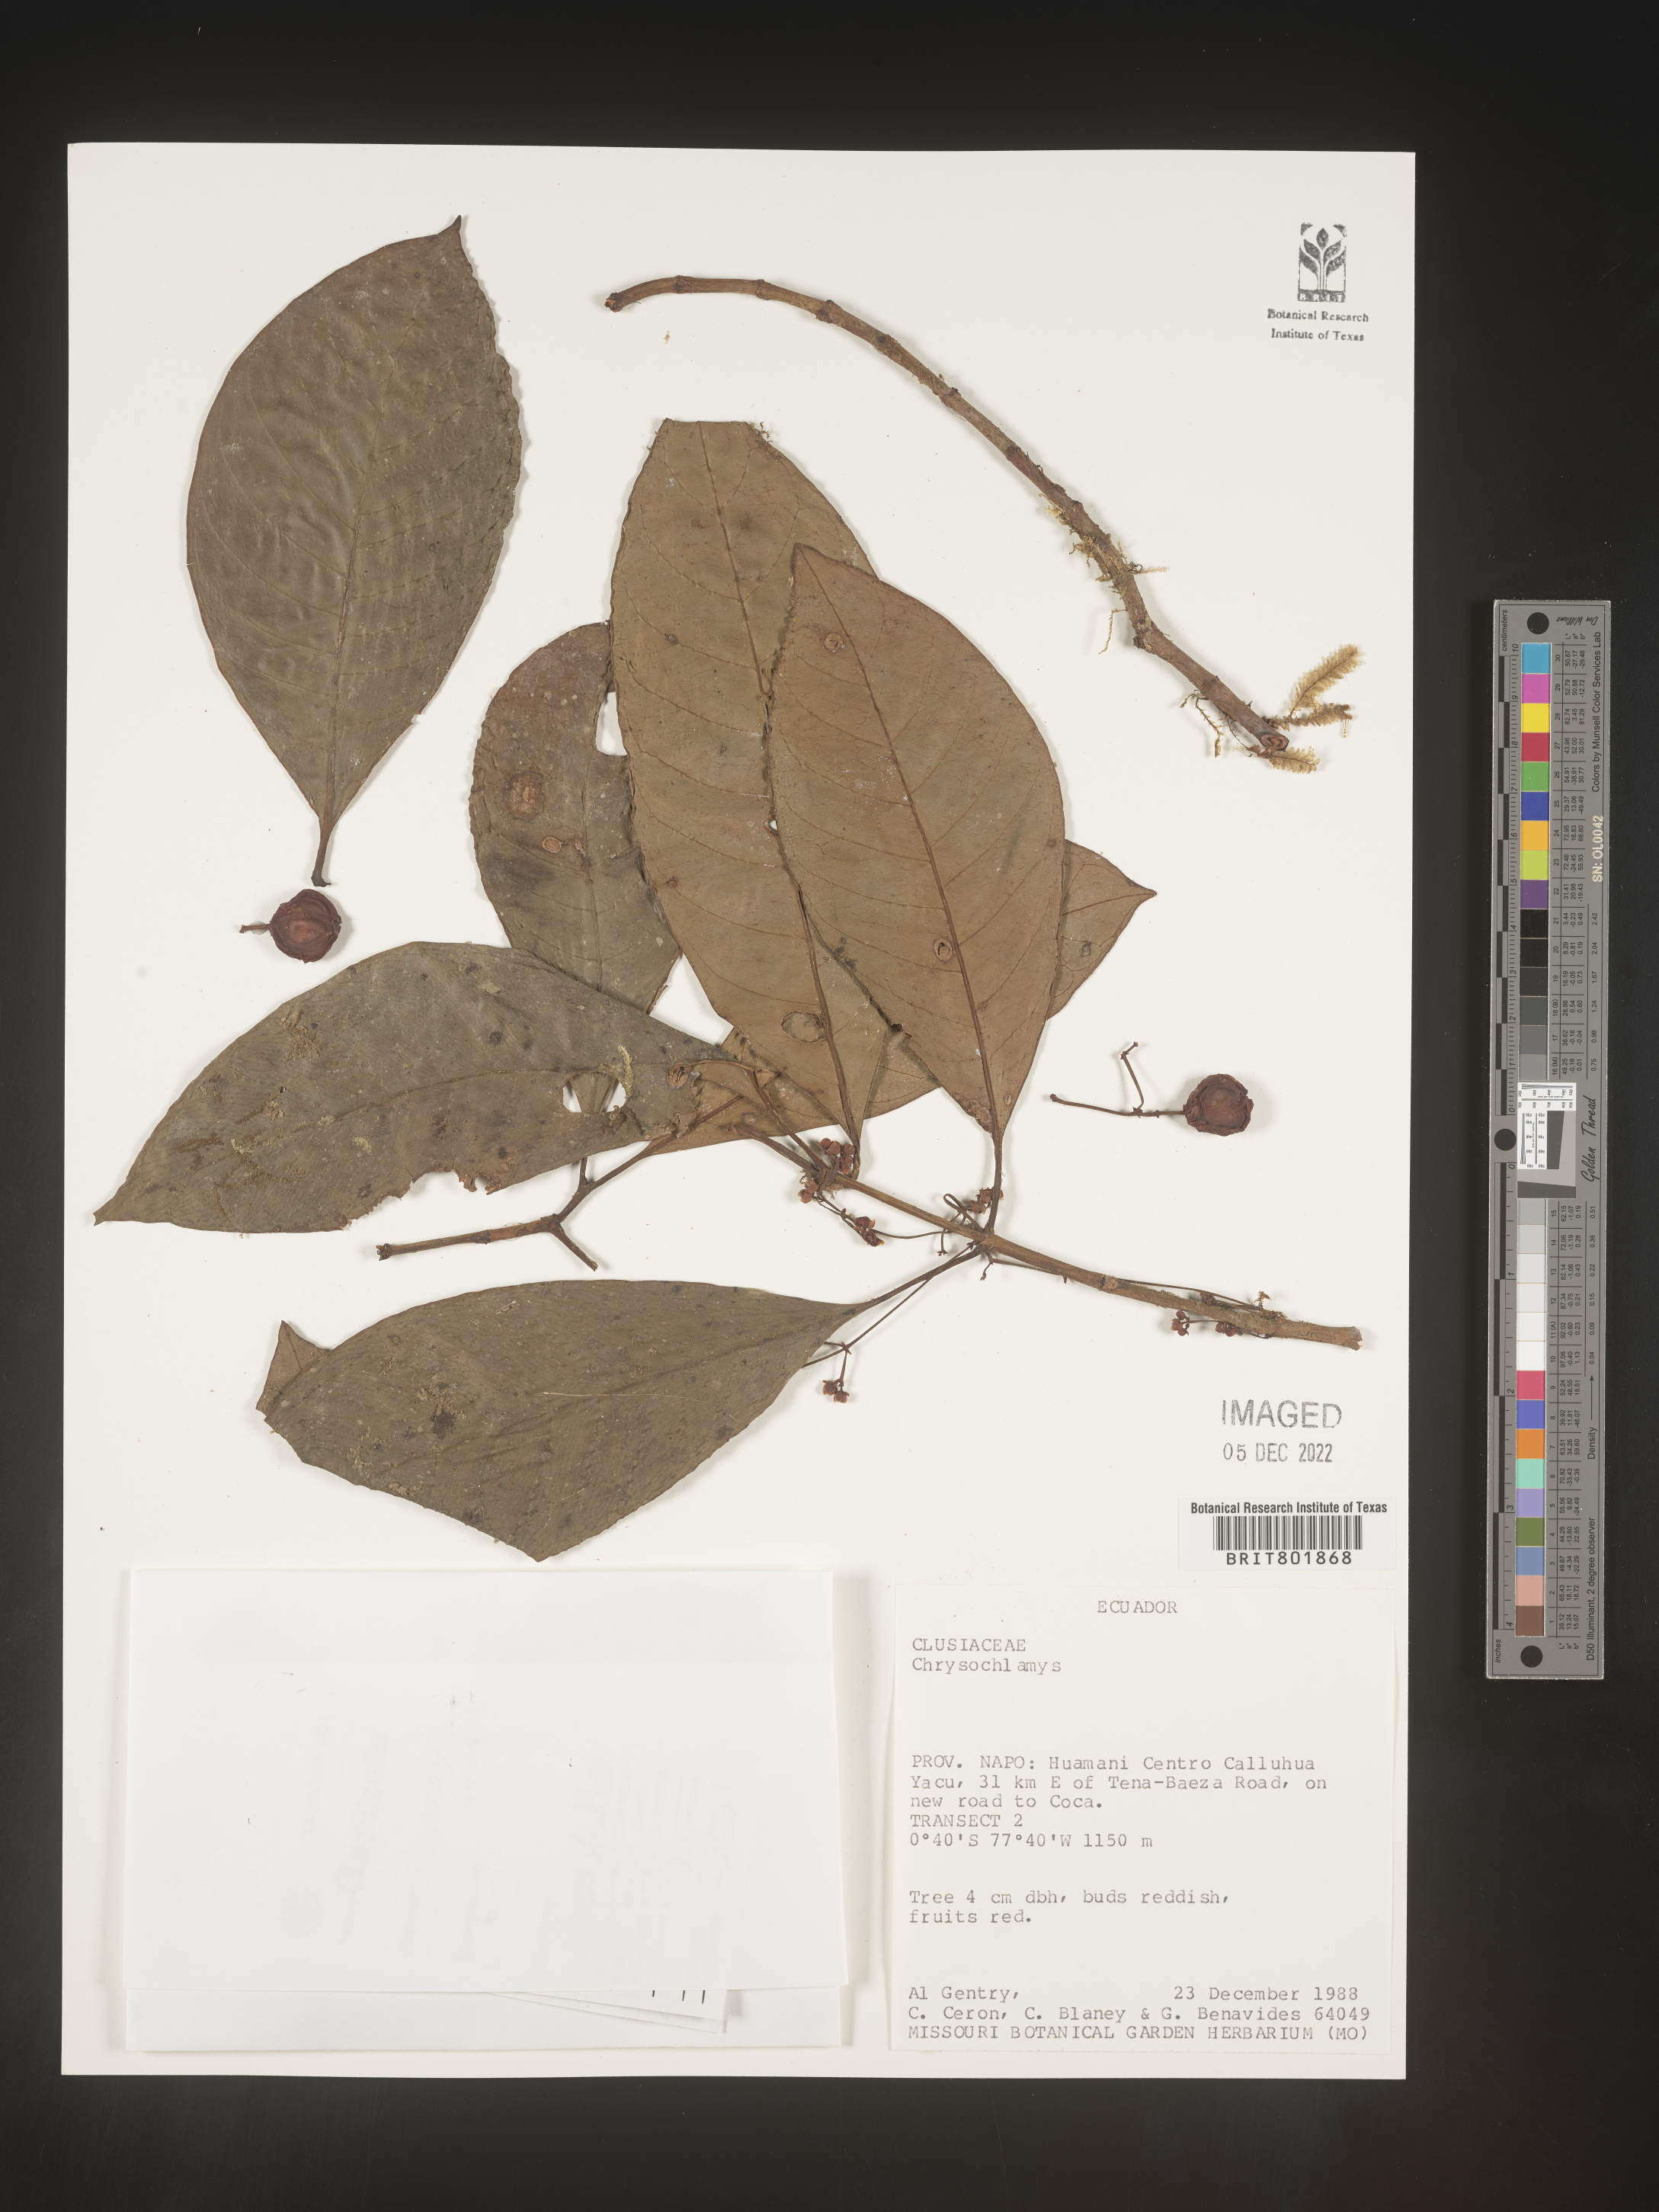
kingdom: Plantae
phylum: Tracheophyta
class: Magnoliopsida
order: Malpighiales
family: Clusiaceae
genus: Chrysochlamys
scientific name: Chrysochlamys
